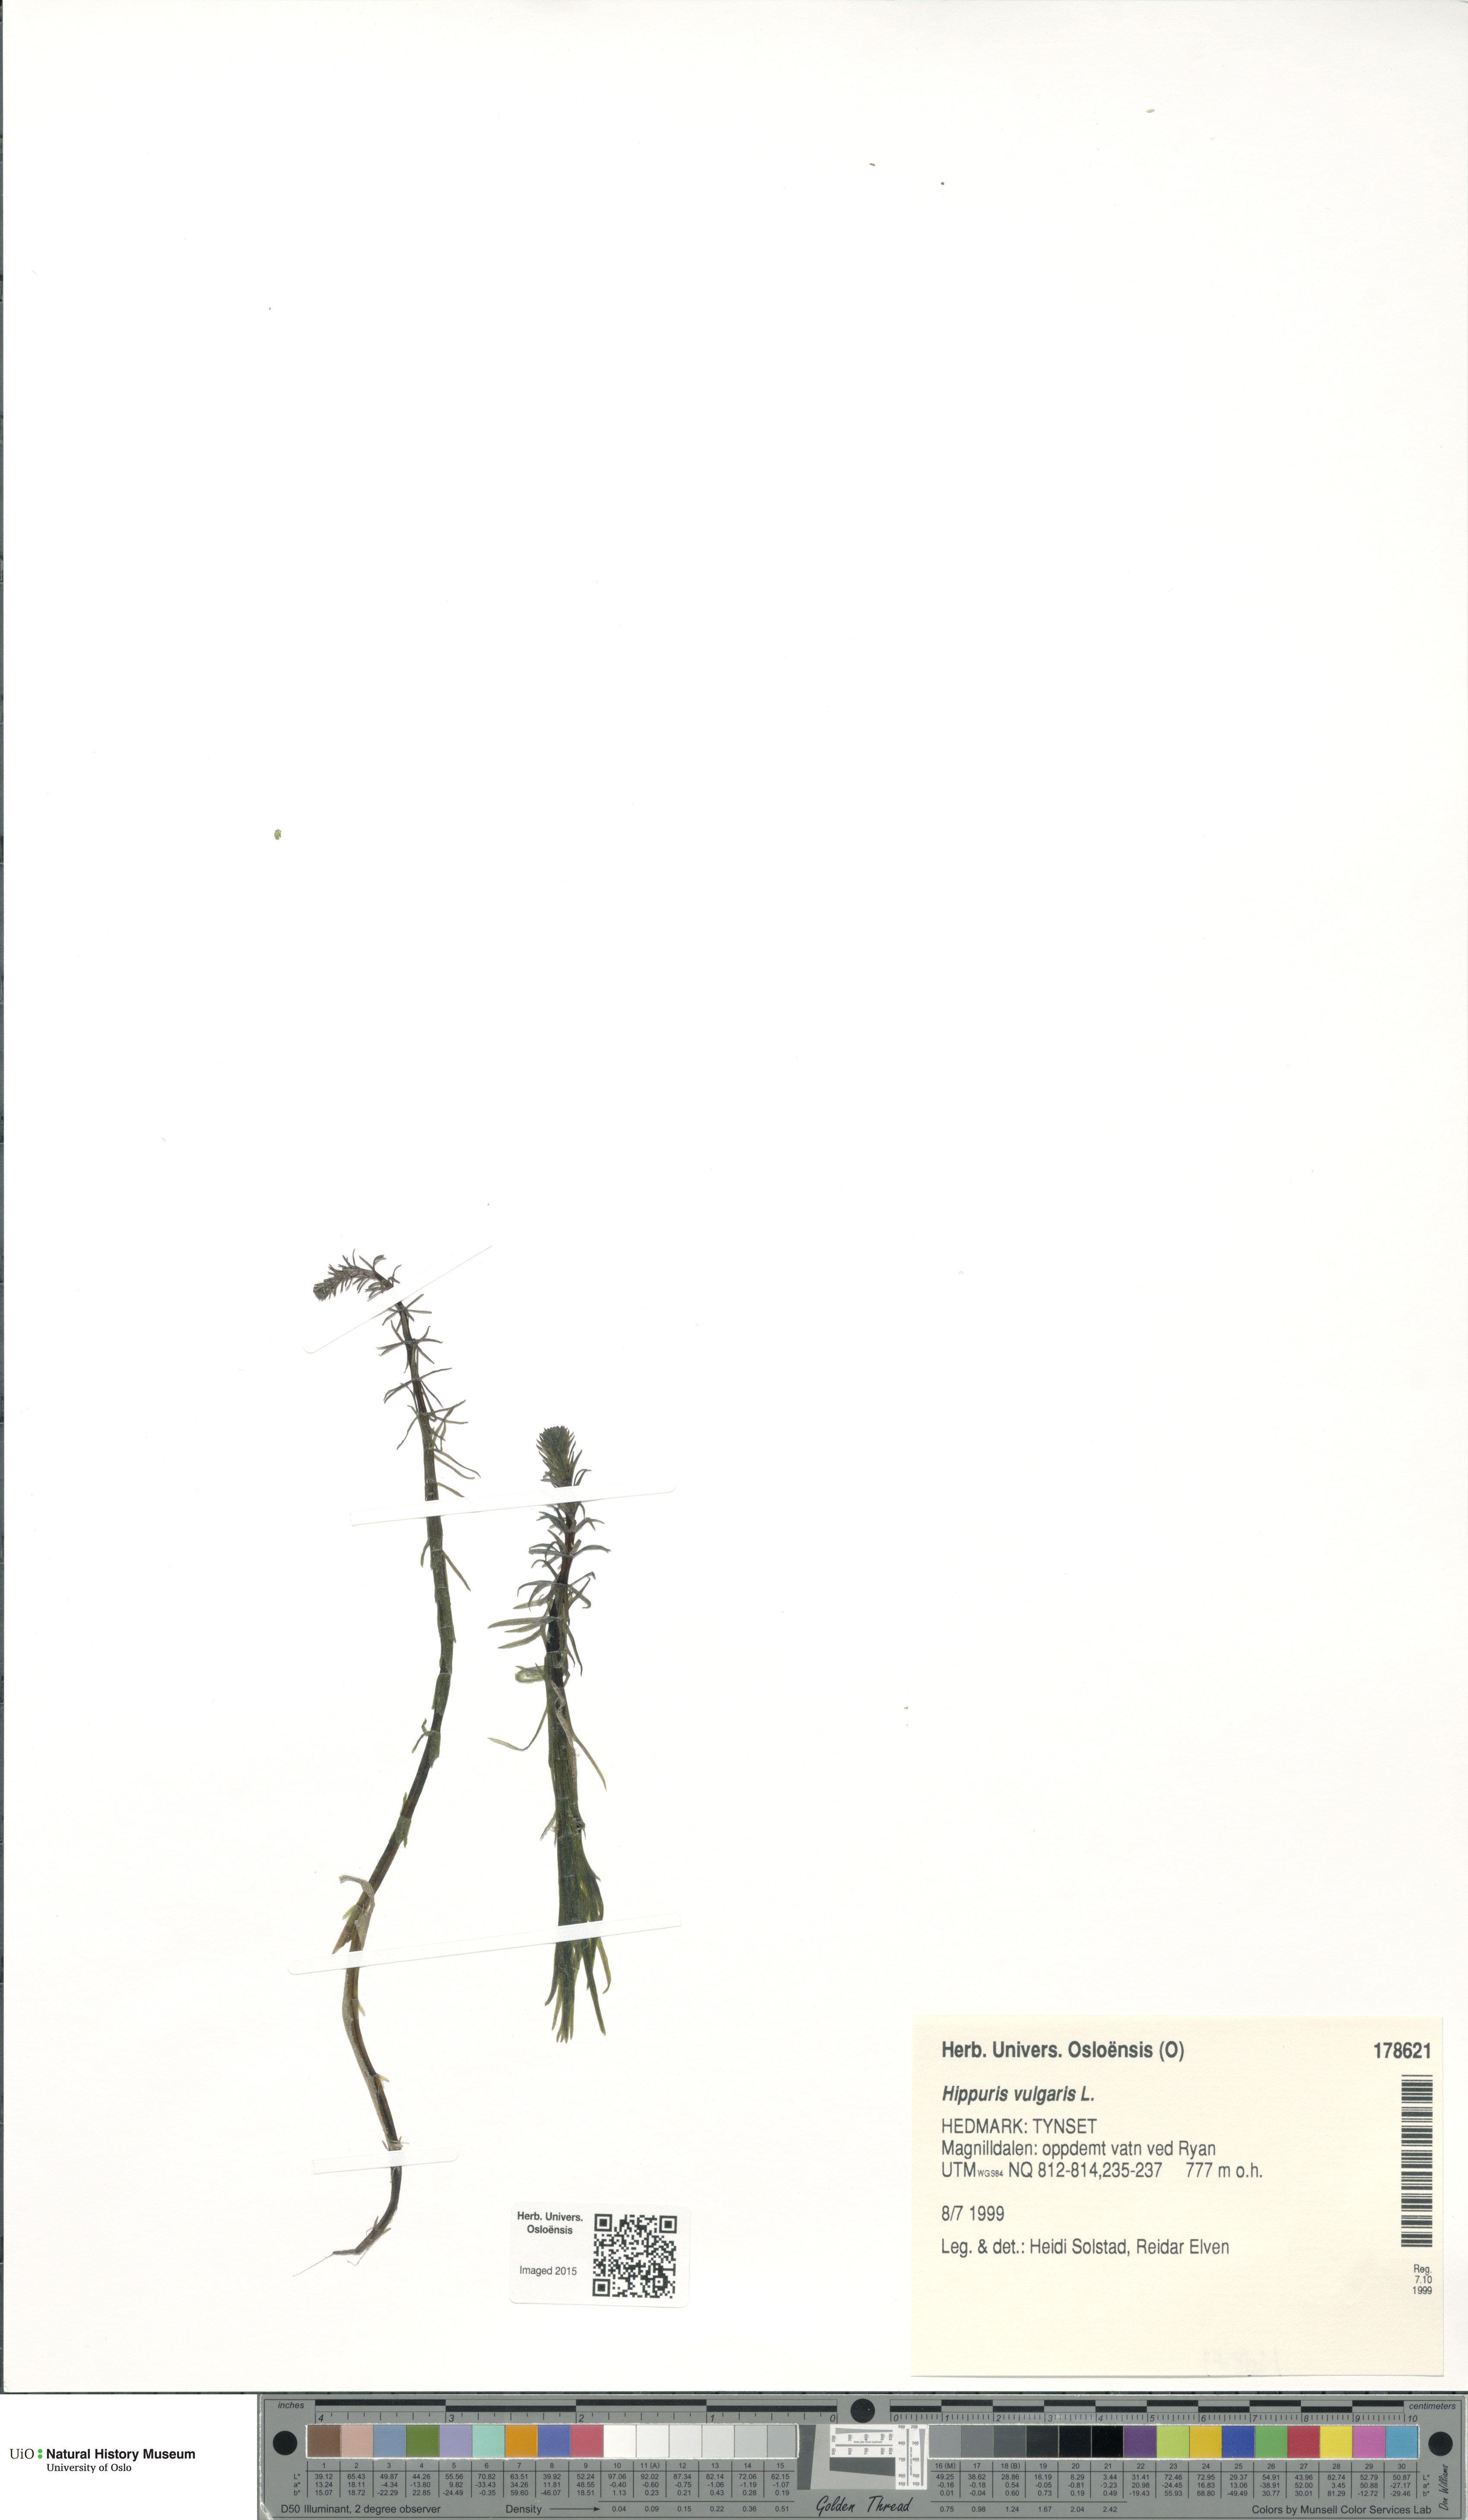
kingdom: Plantae
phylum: Tracheophyta
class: Magnoliopsida
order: Lamiales
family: Plantaginaceae
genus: Hippuris
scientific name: Hippuris vulgaris
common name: Mare's-tail
